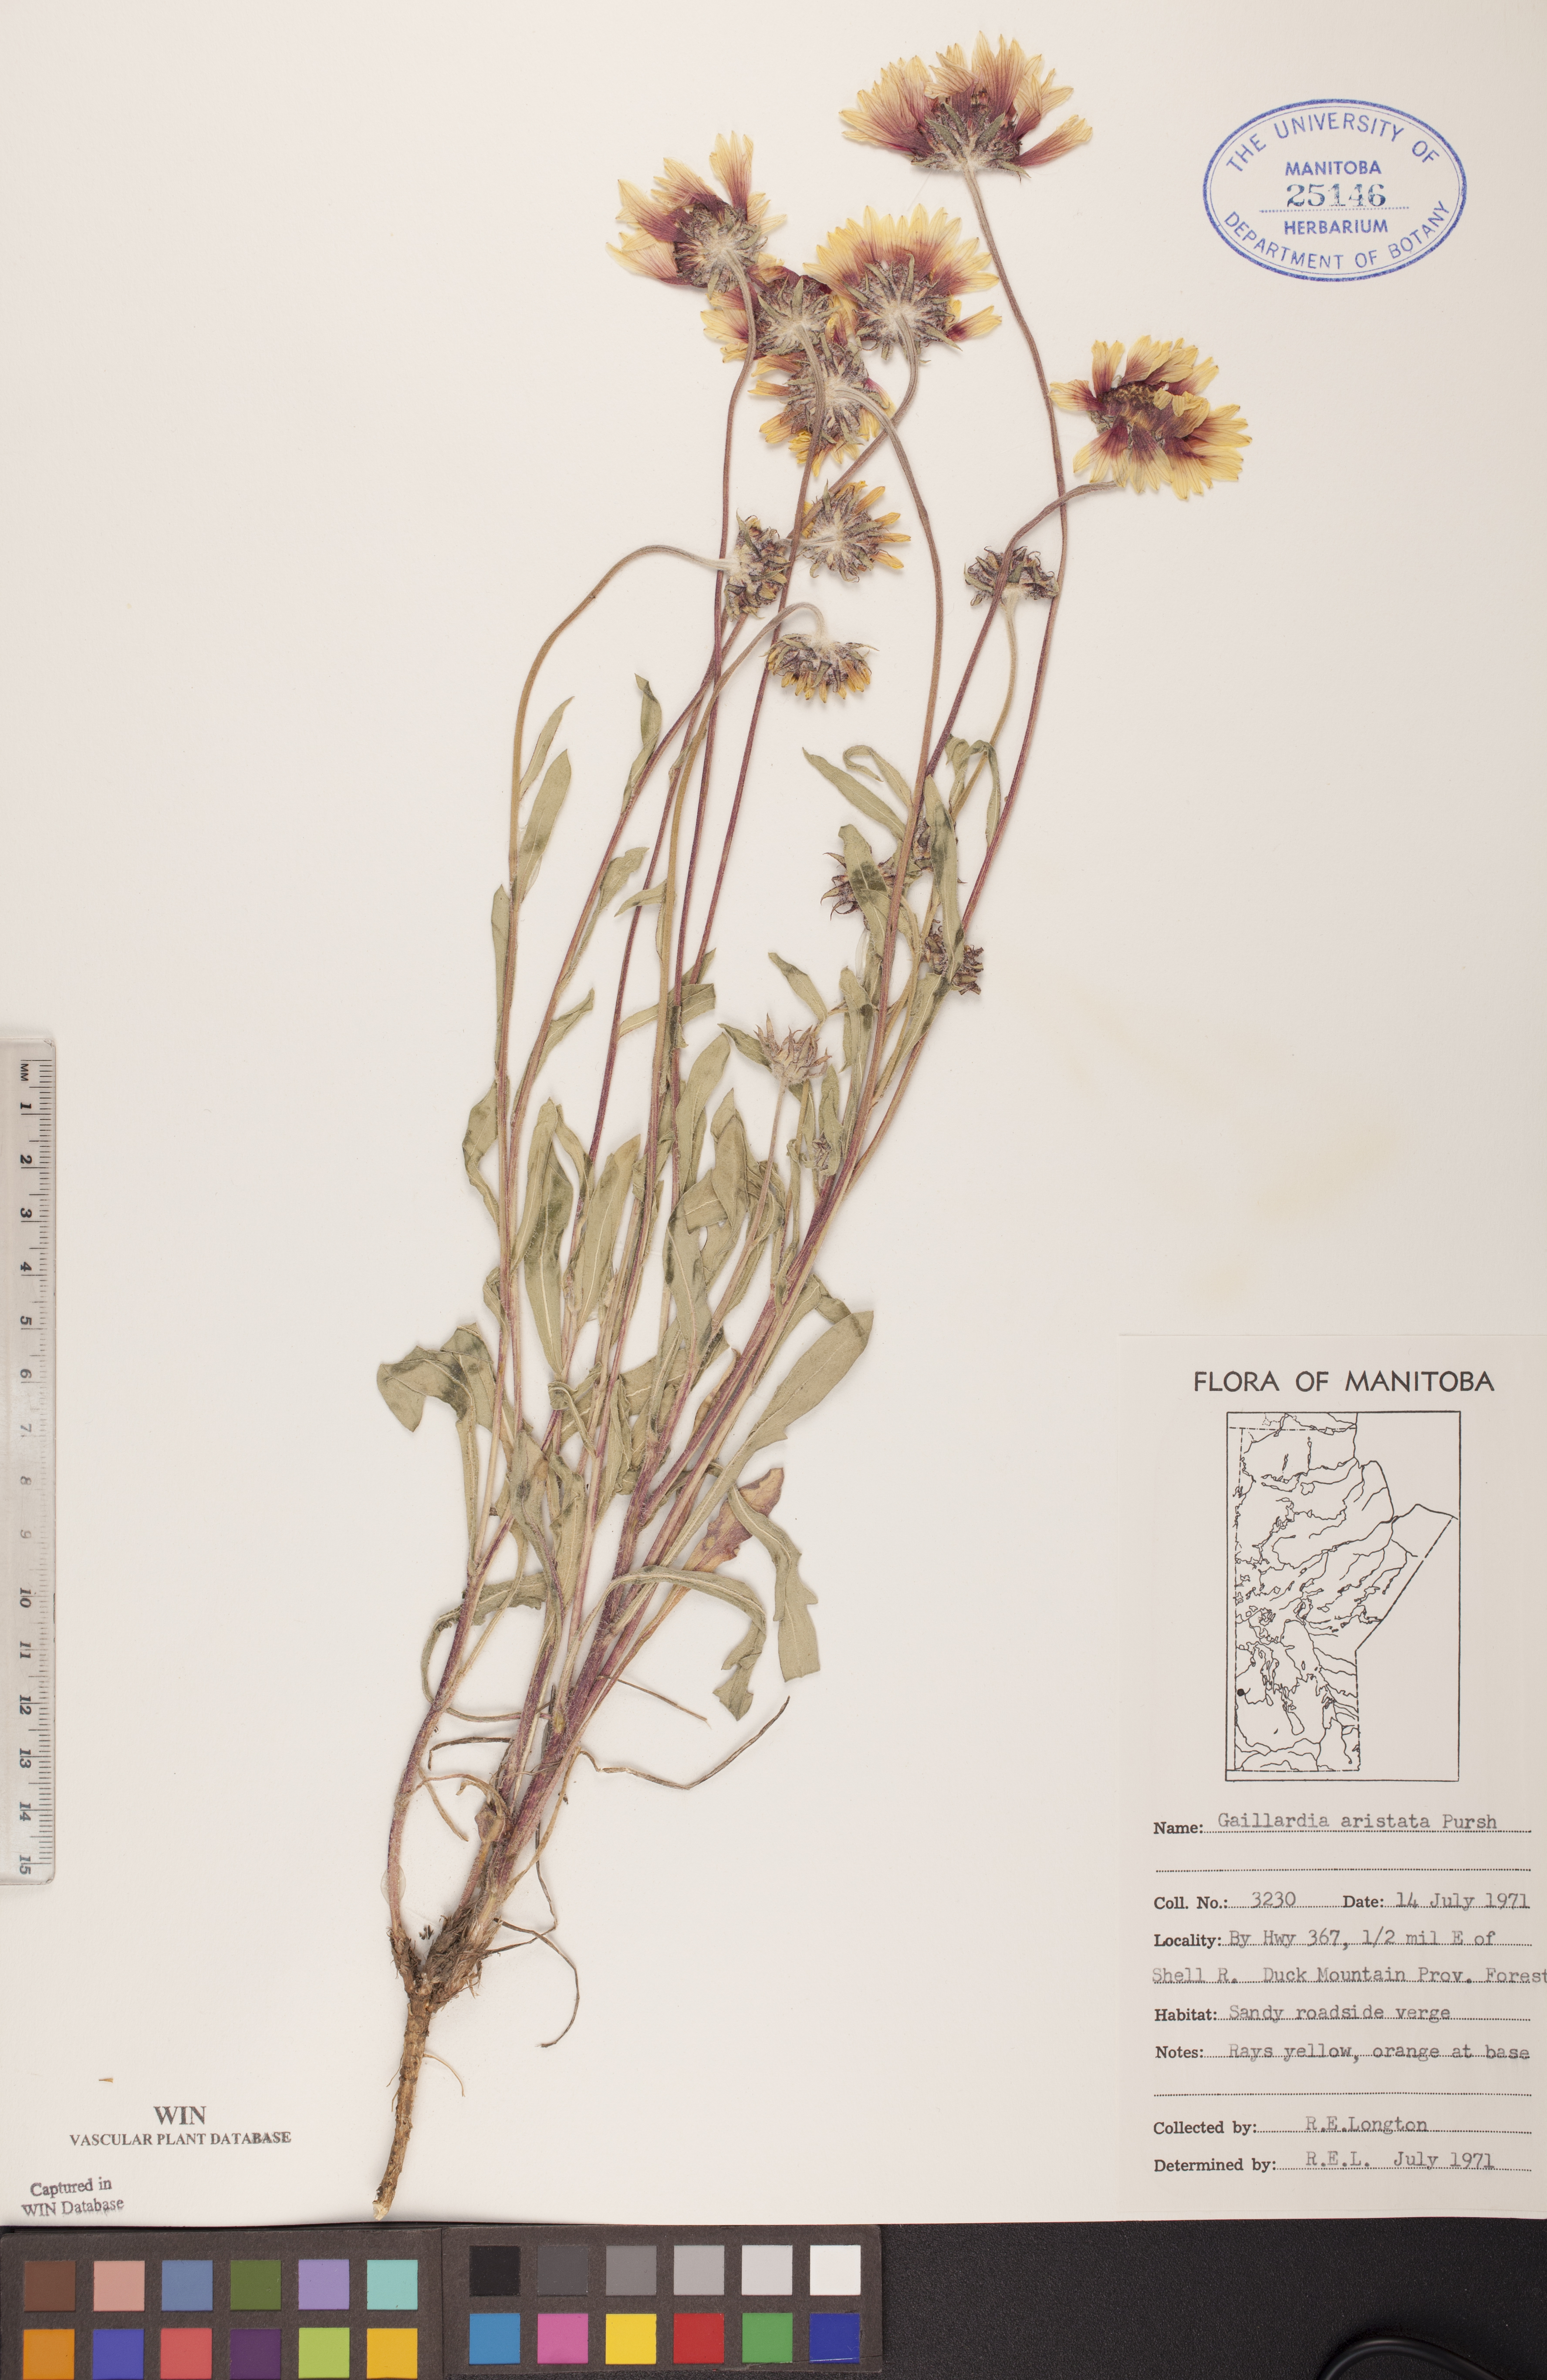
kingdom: Plantae
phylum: Tracheophyta
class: Magnoliopsida
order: Asterales
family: Asteraceae
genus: Gaillardia
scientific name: Gaillardia aristata
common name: Blanket-flower
